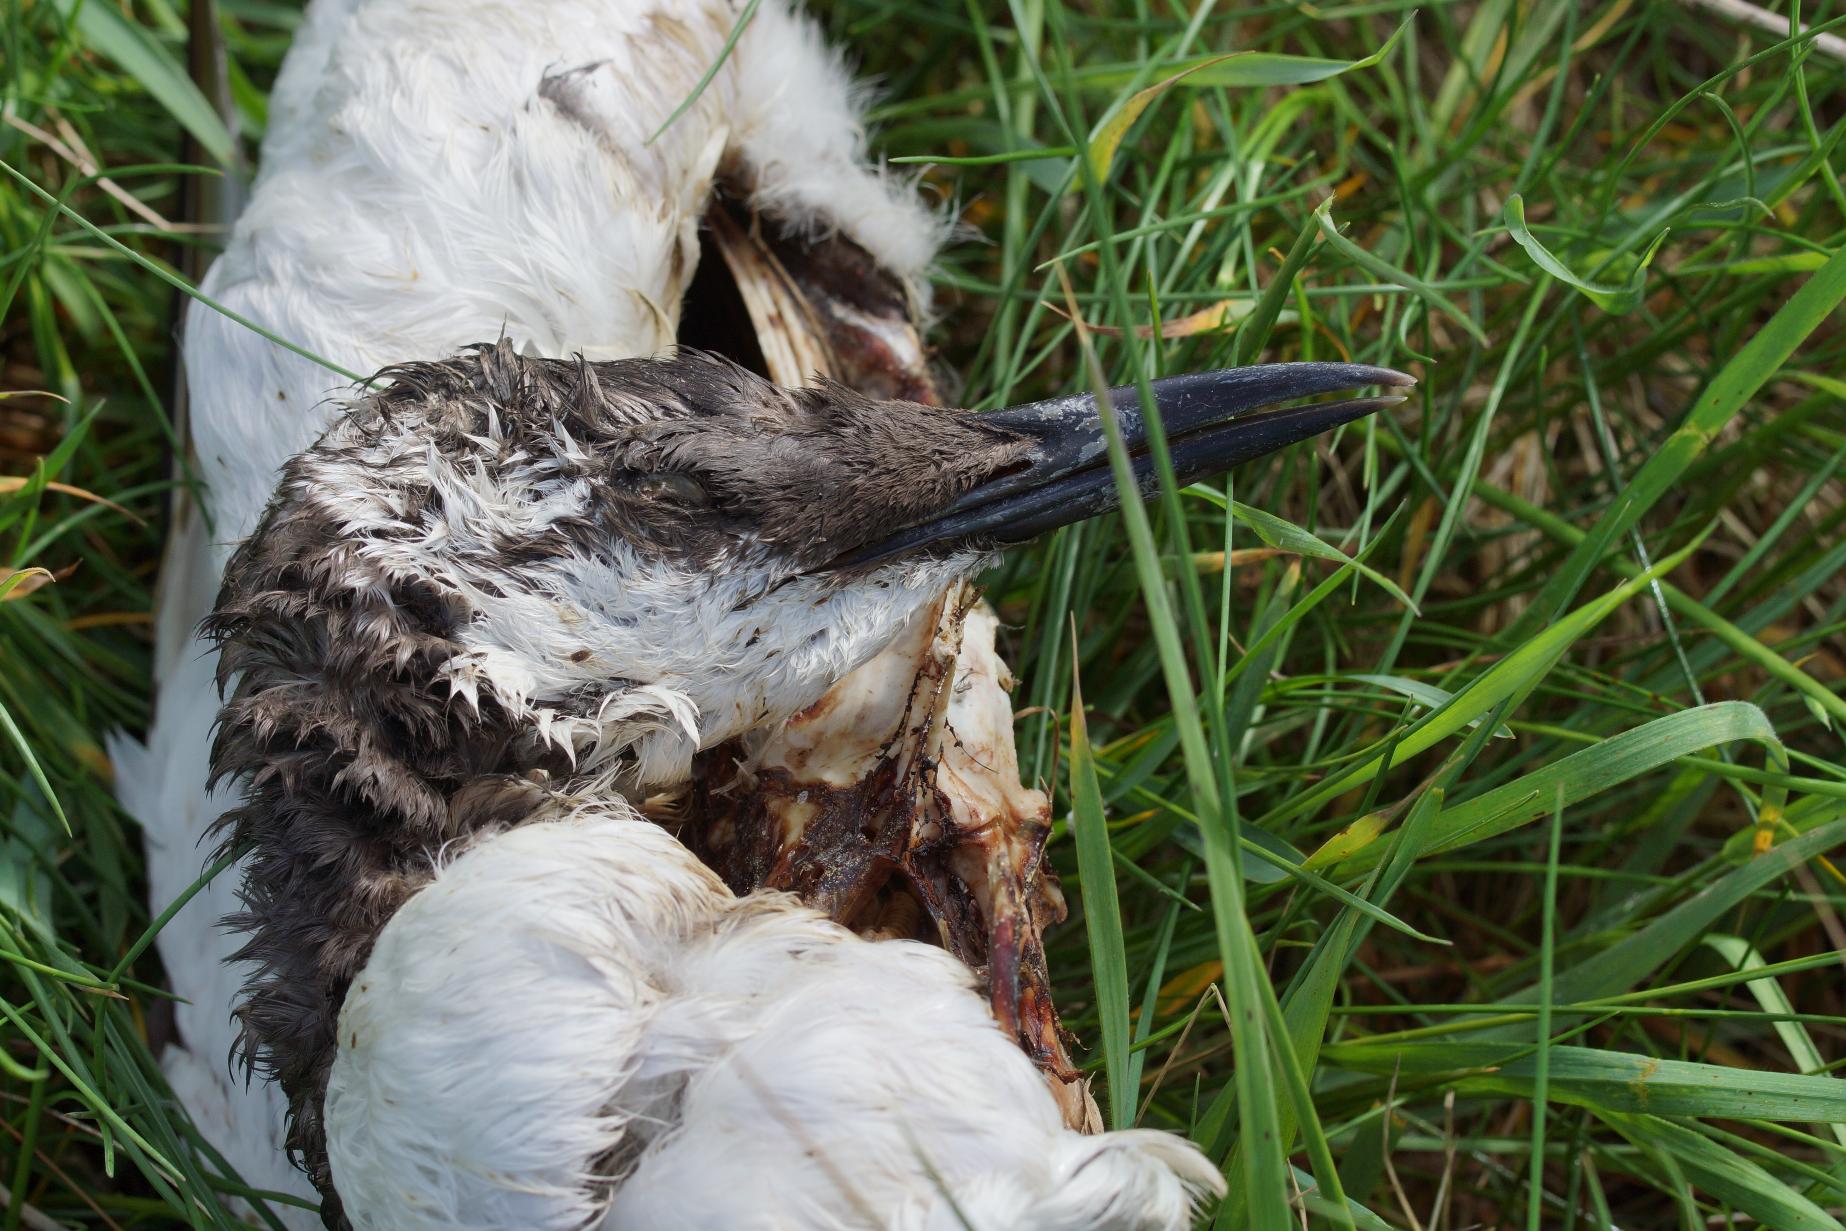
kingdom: Animalia
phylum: Chordata
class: Aves
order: Charadriiformes
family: Alcidae
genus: Uria
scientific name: Uria aalge
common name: Lomvie
